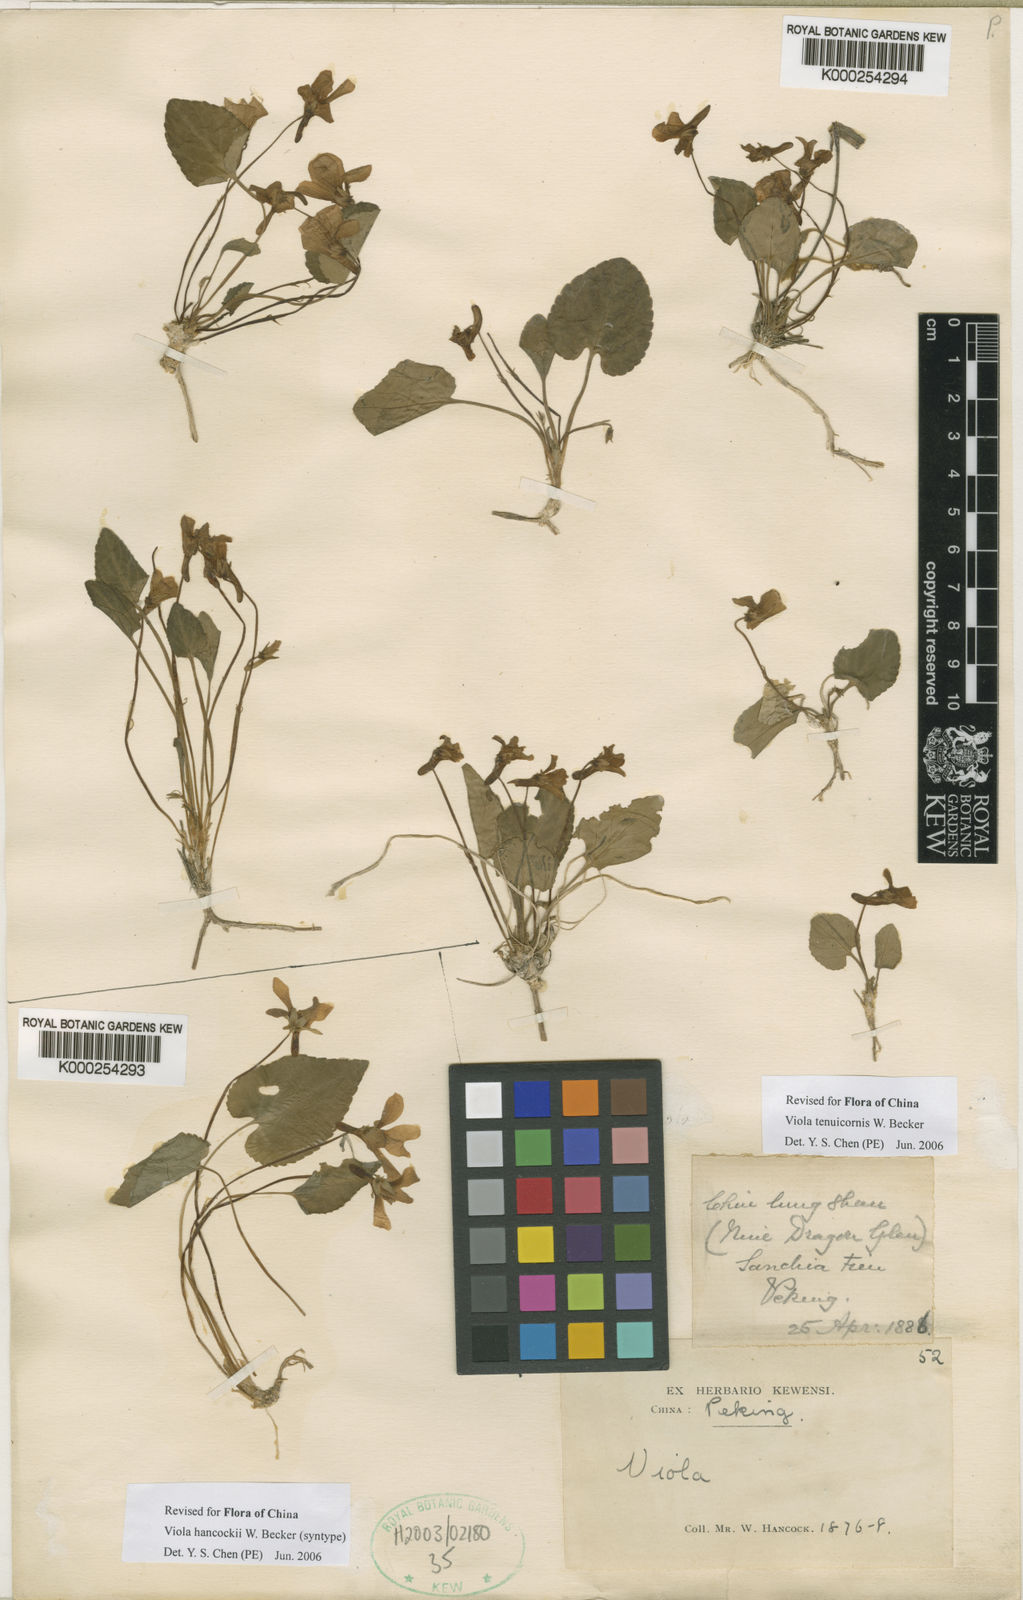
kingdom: Plantae
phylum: Tracheophyta
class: Magnoliopsida
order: Malpighiales
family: Violaceae
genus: Viola
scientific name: Viola hancockii
